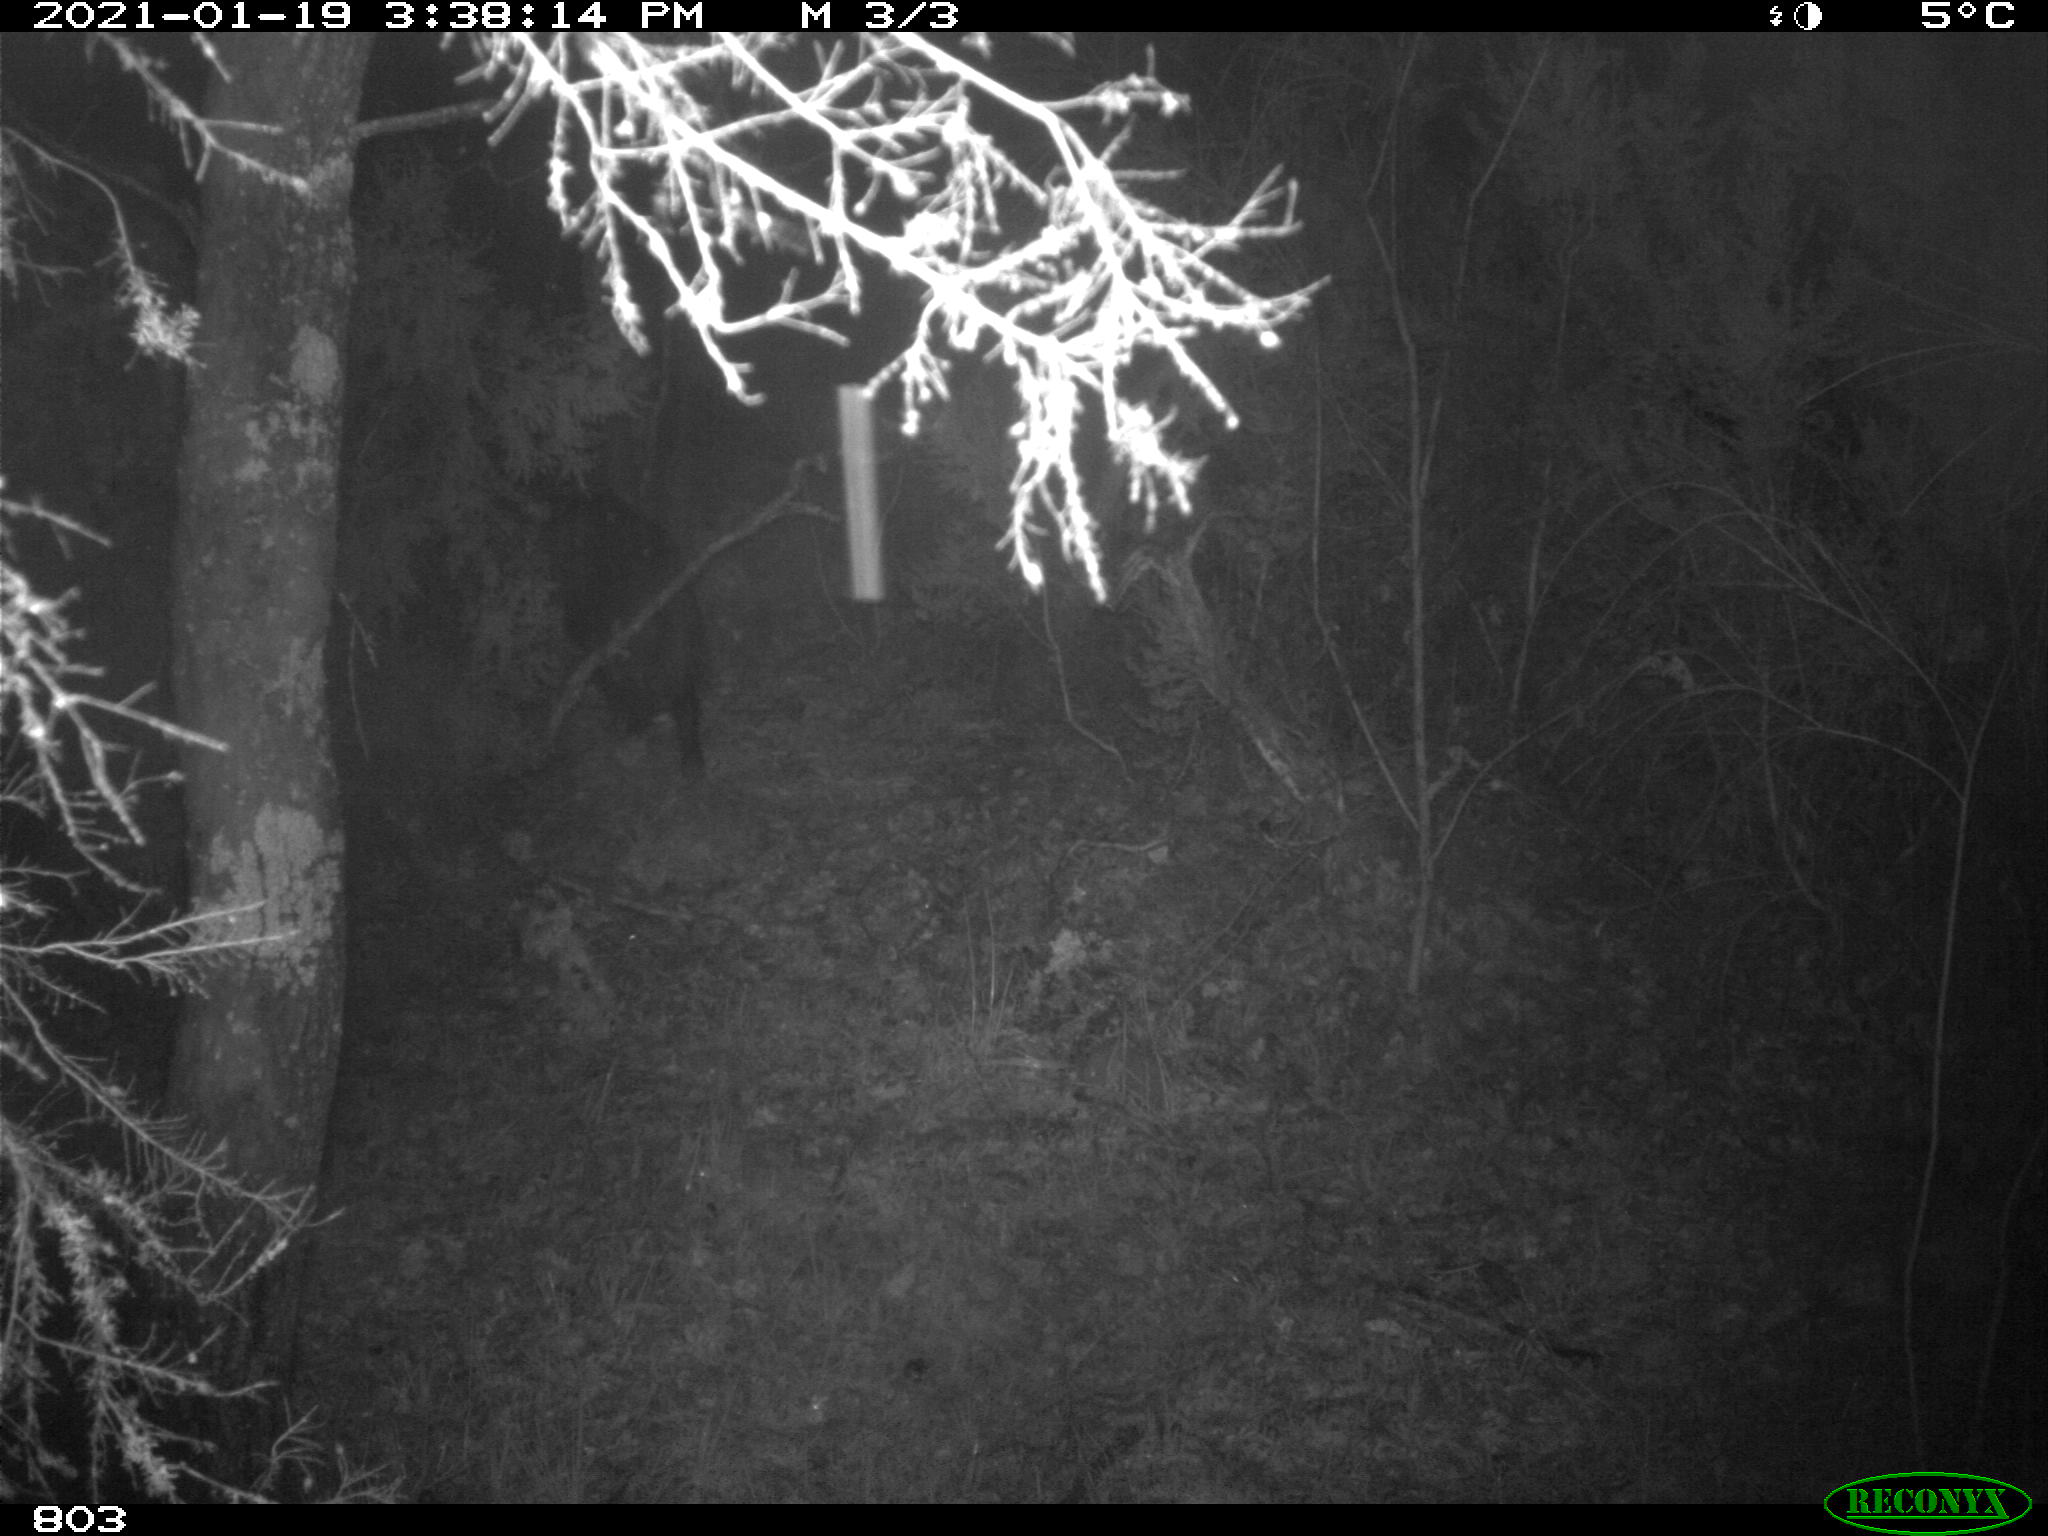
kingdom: Animalia
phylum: Chordata
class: Mammalia
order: Artiodactyla
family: Suidae
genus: Sus
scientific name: Sus scrofa
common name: Wild boar
